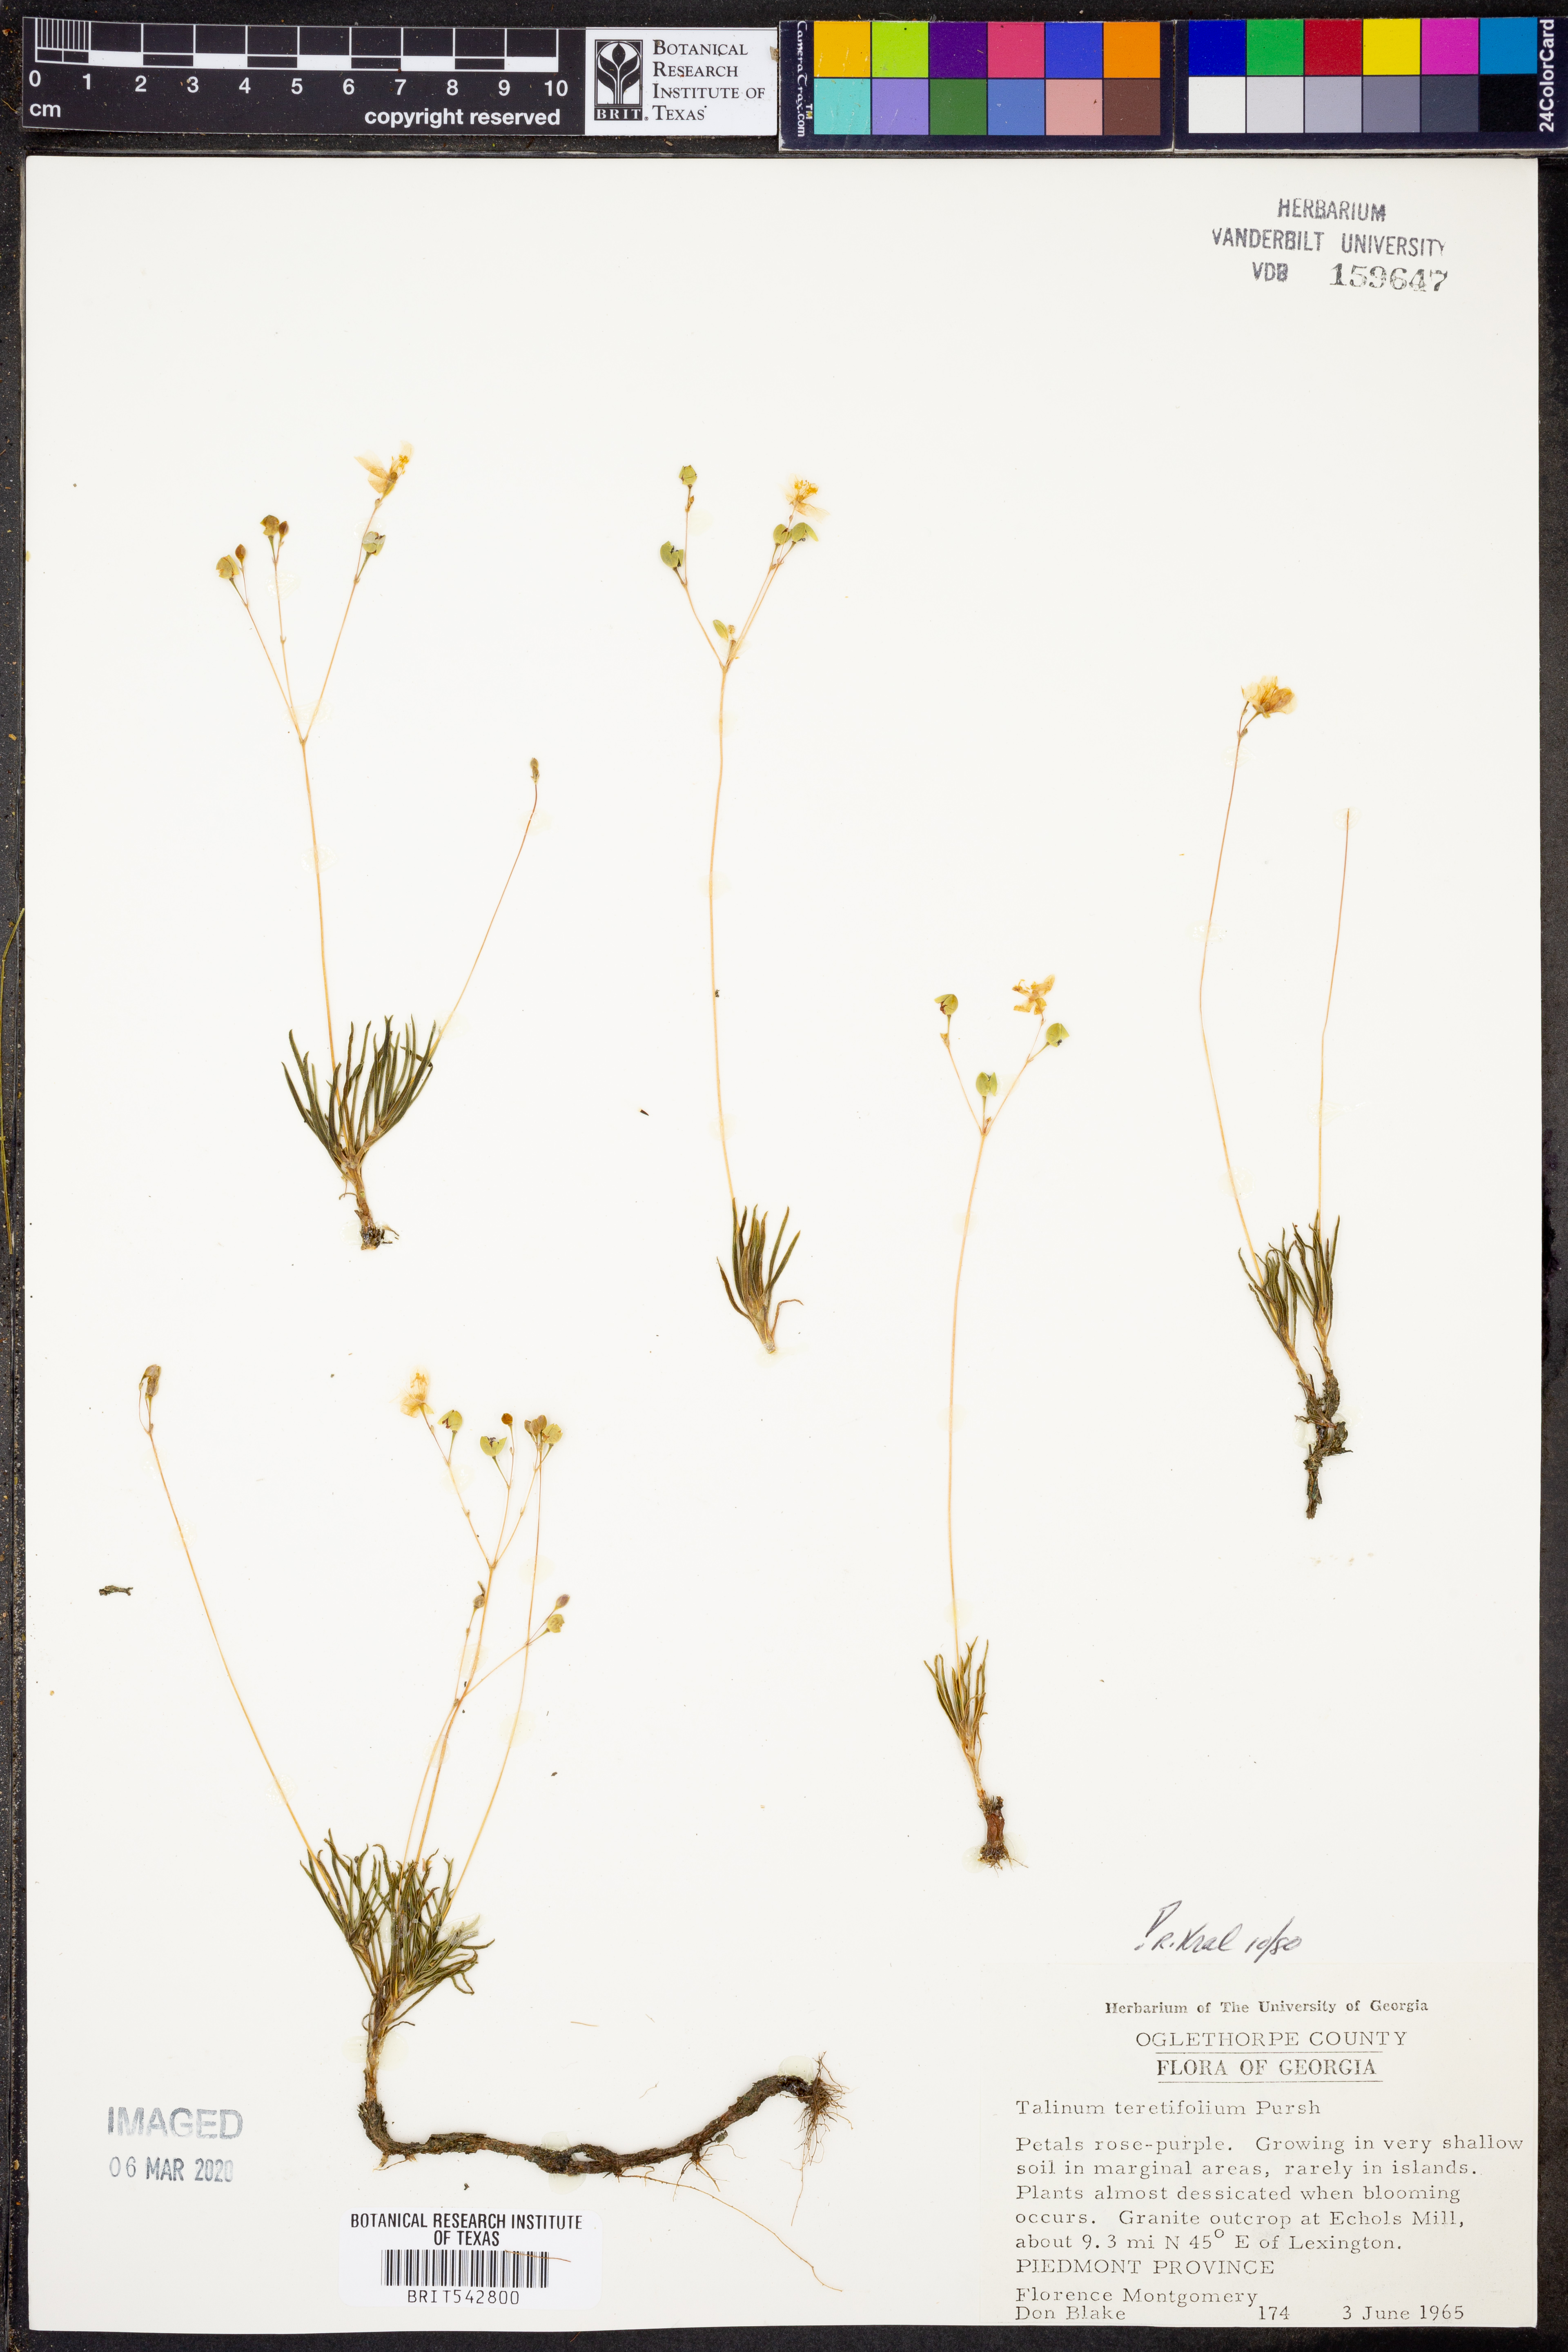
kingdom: Plantae
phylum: Tracheophyta
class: Magnoliopsida
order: Caryophyllales
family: Montiaceae
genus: Phemeranthus
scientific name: Phemeranthus teretifolius
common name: Quill fameflower
